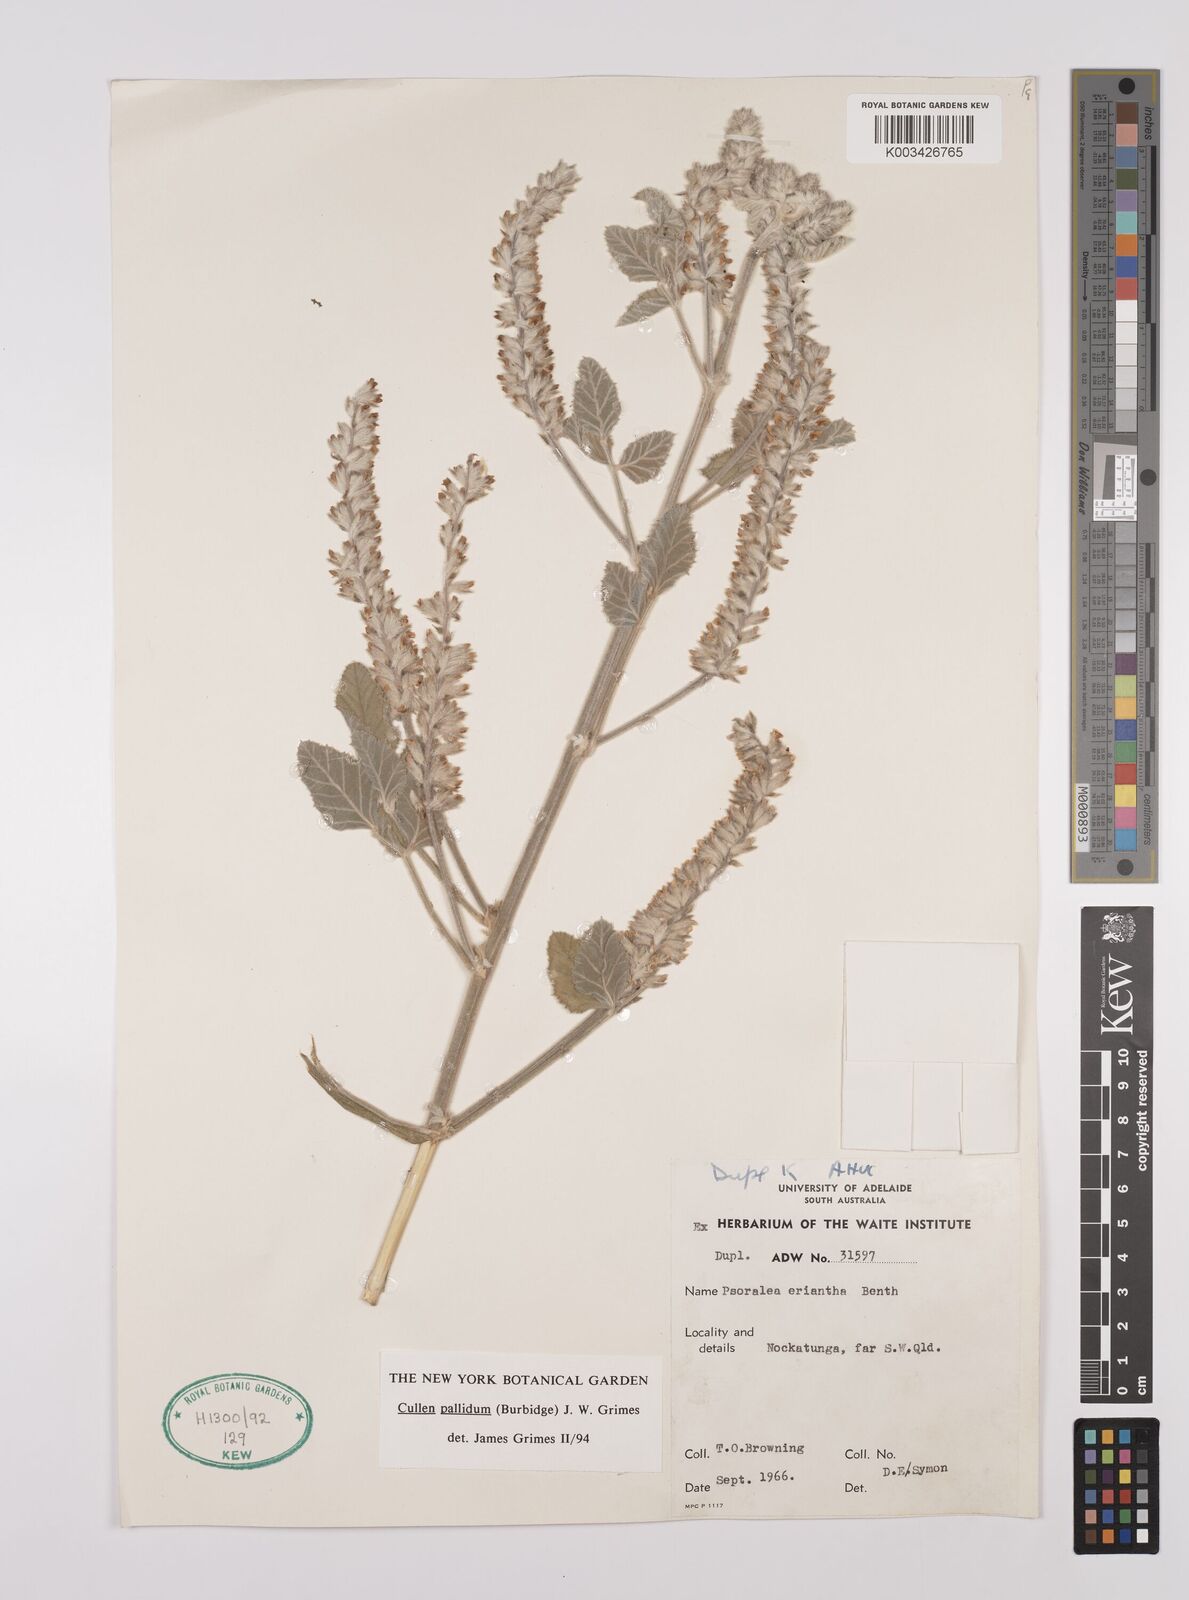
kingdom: Plantae
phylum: Tracheophyta
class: Magnoliopsida
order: Fabales
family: Fabaceae
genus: Cullen
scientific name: Cullen pallidum
